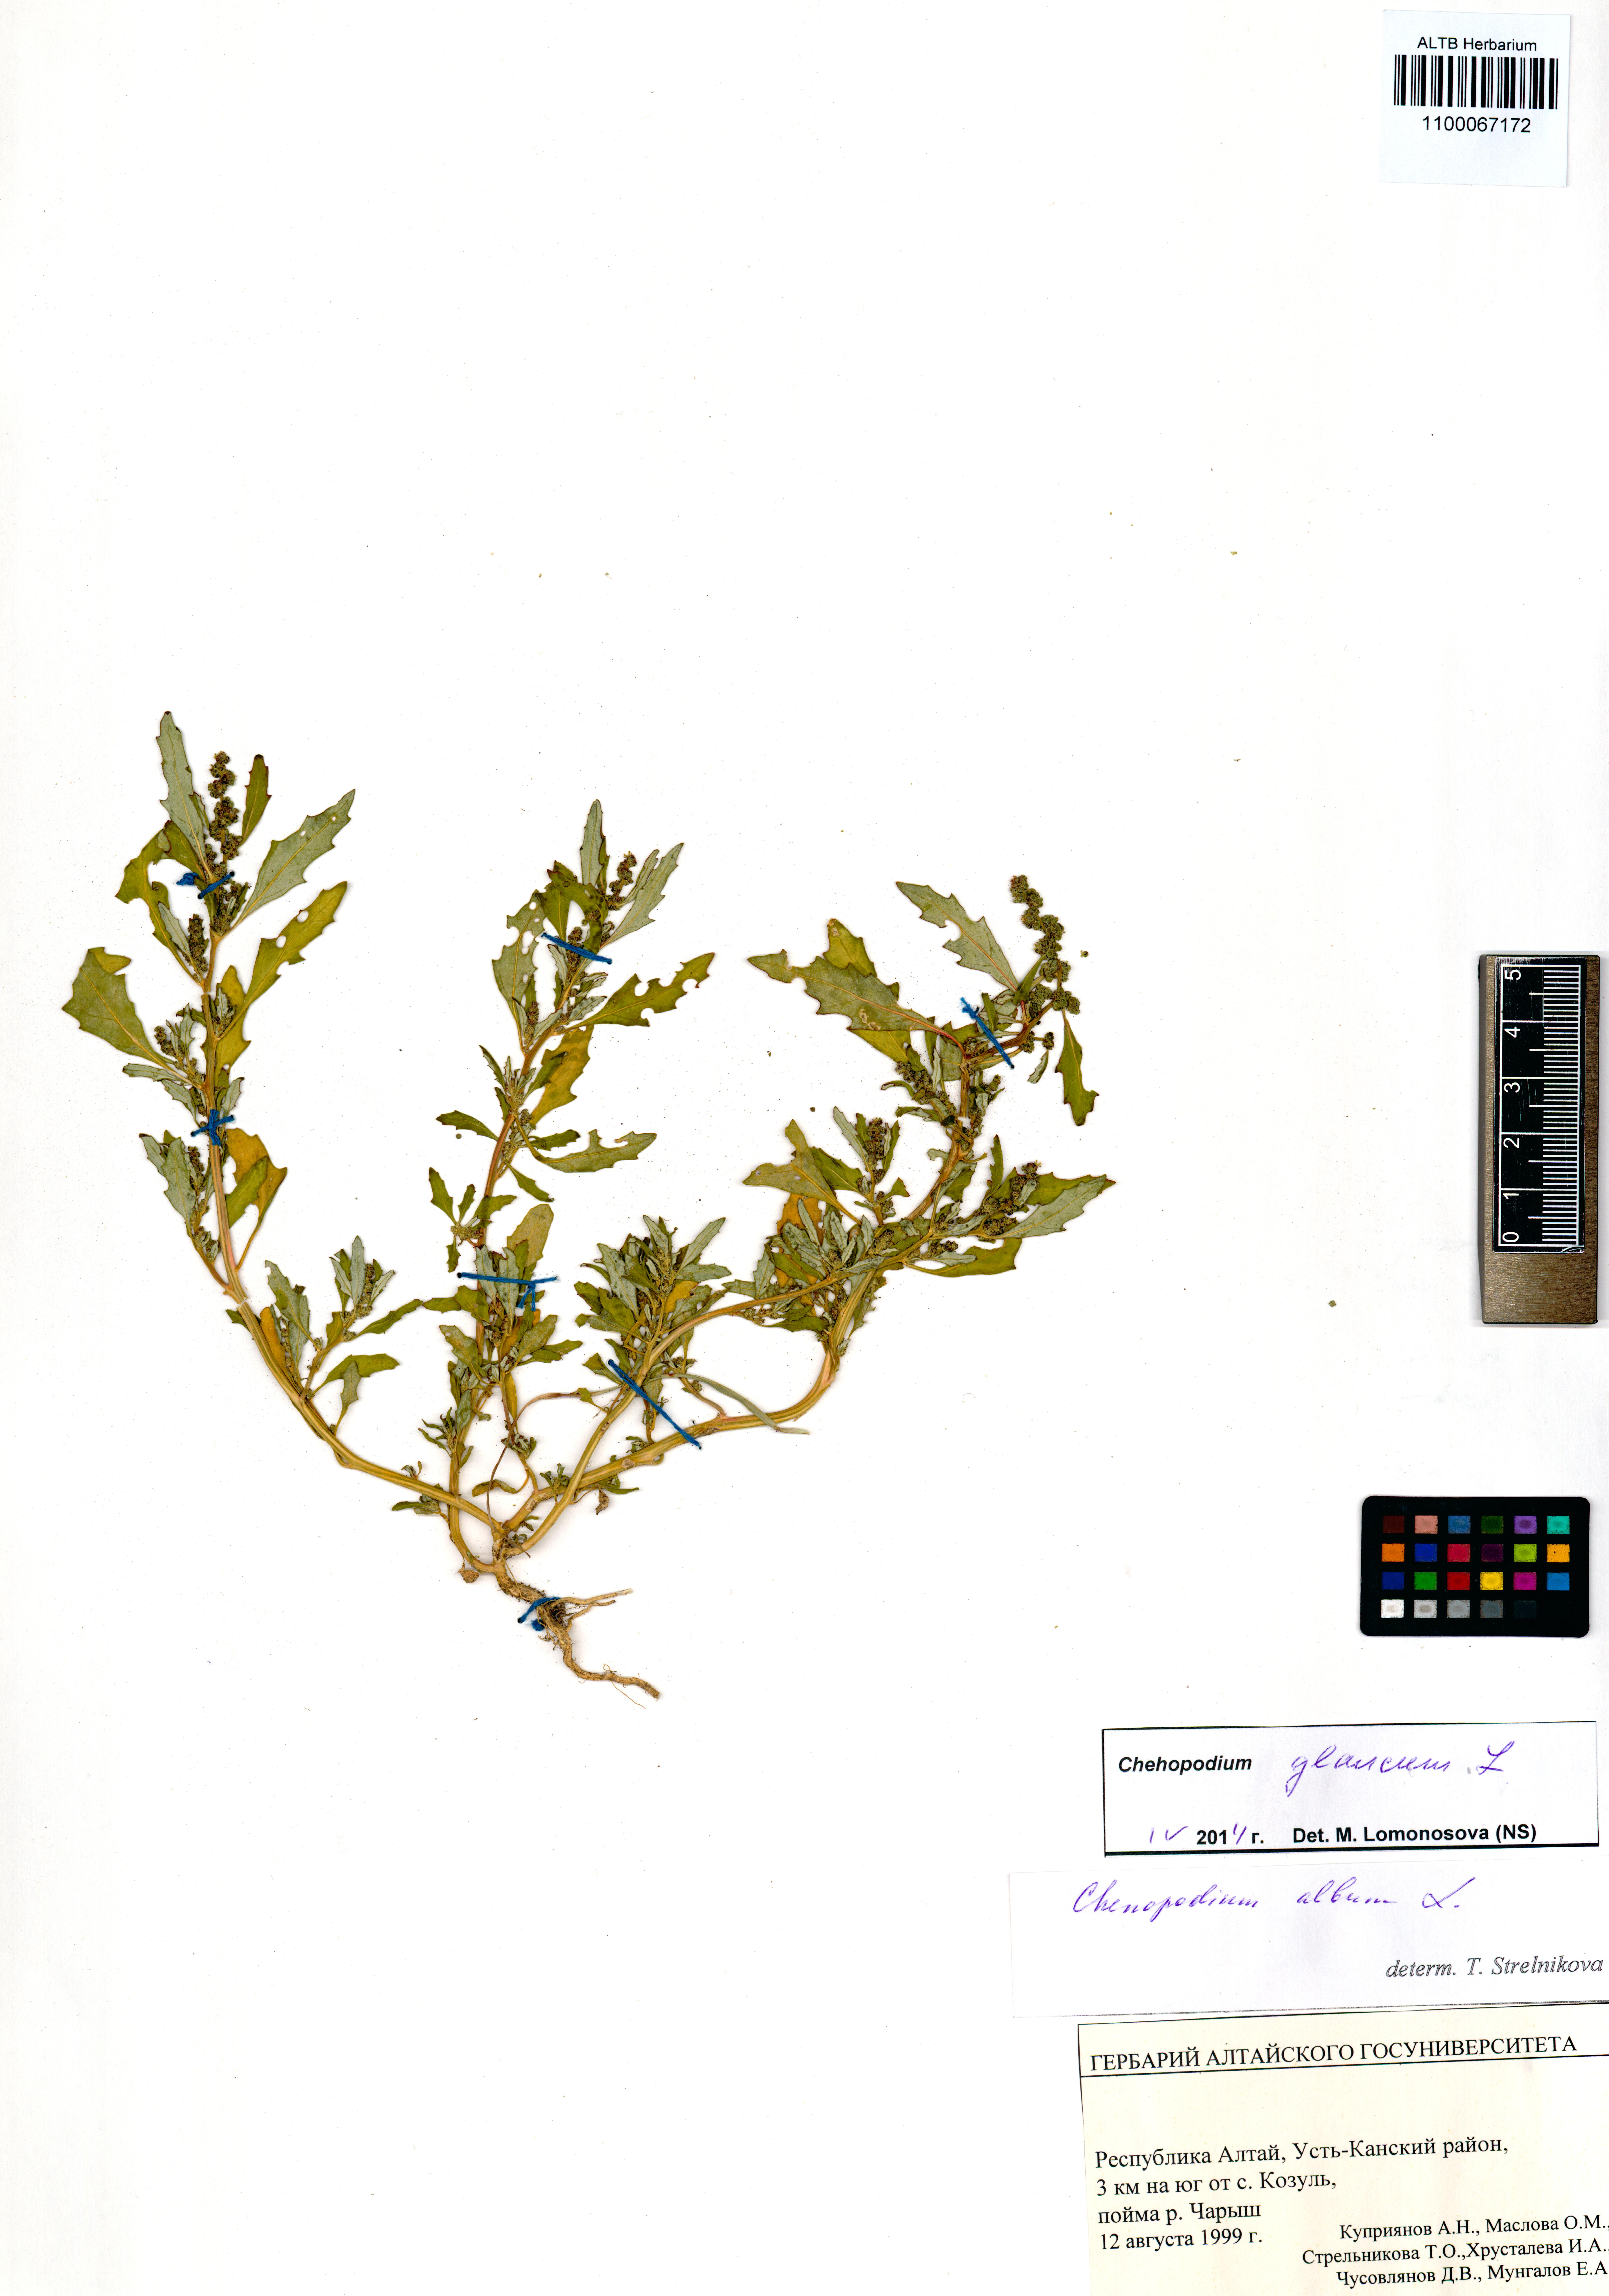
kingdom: Plantae
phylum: Tracheophyta
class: Magnoliopsida
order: Caryophyllales
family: Amaranthaceae
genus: Oxybasis
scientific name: Oxybasis glauca
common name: Glaucous goosefoot
